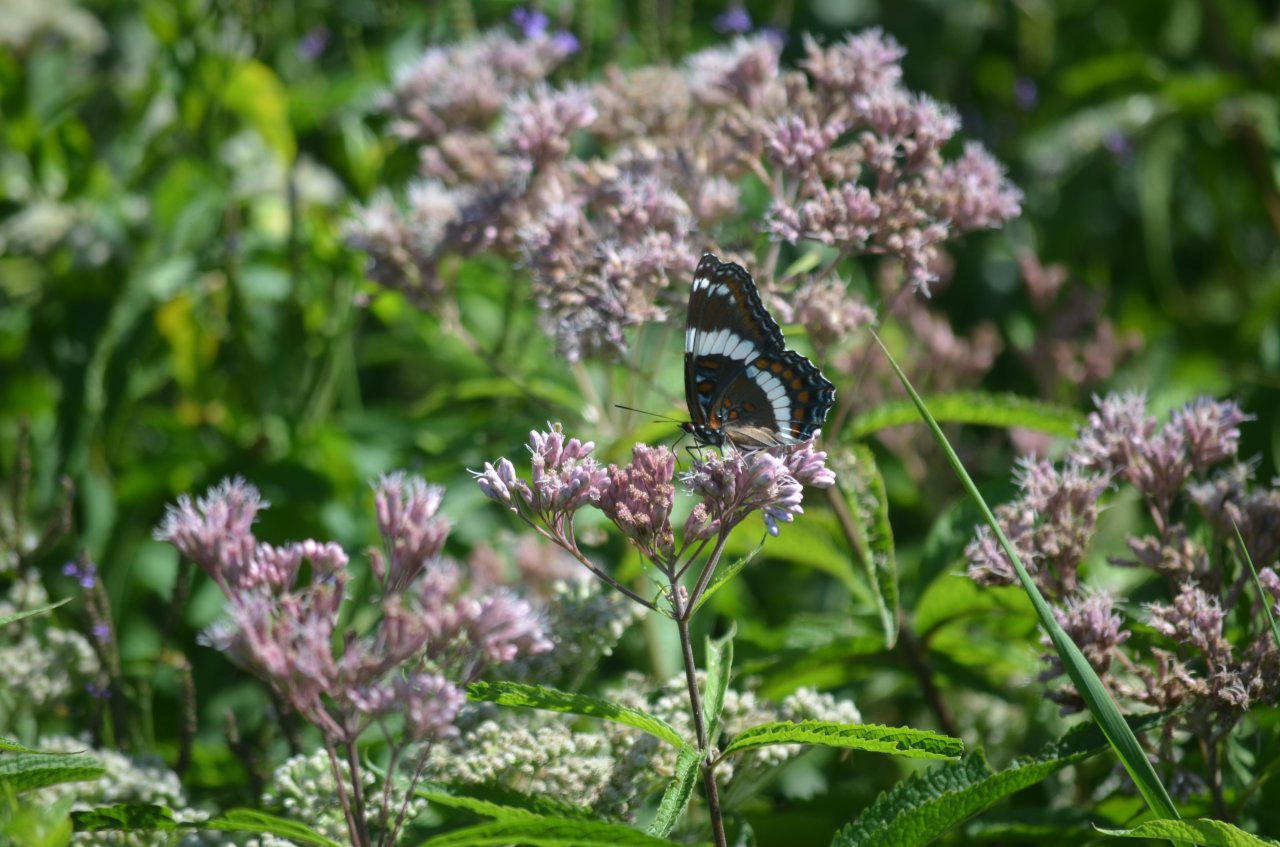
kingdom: Animalia
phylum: Arthropoda
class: Insecta
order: Lepidoptera
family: Nymphalidae
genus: Limenitis
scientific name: Limenitis arthemis
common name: Red-spotted Admiral
